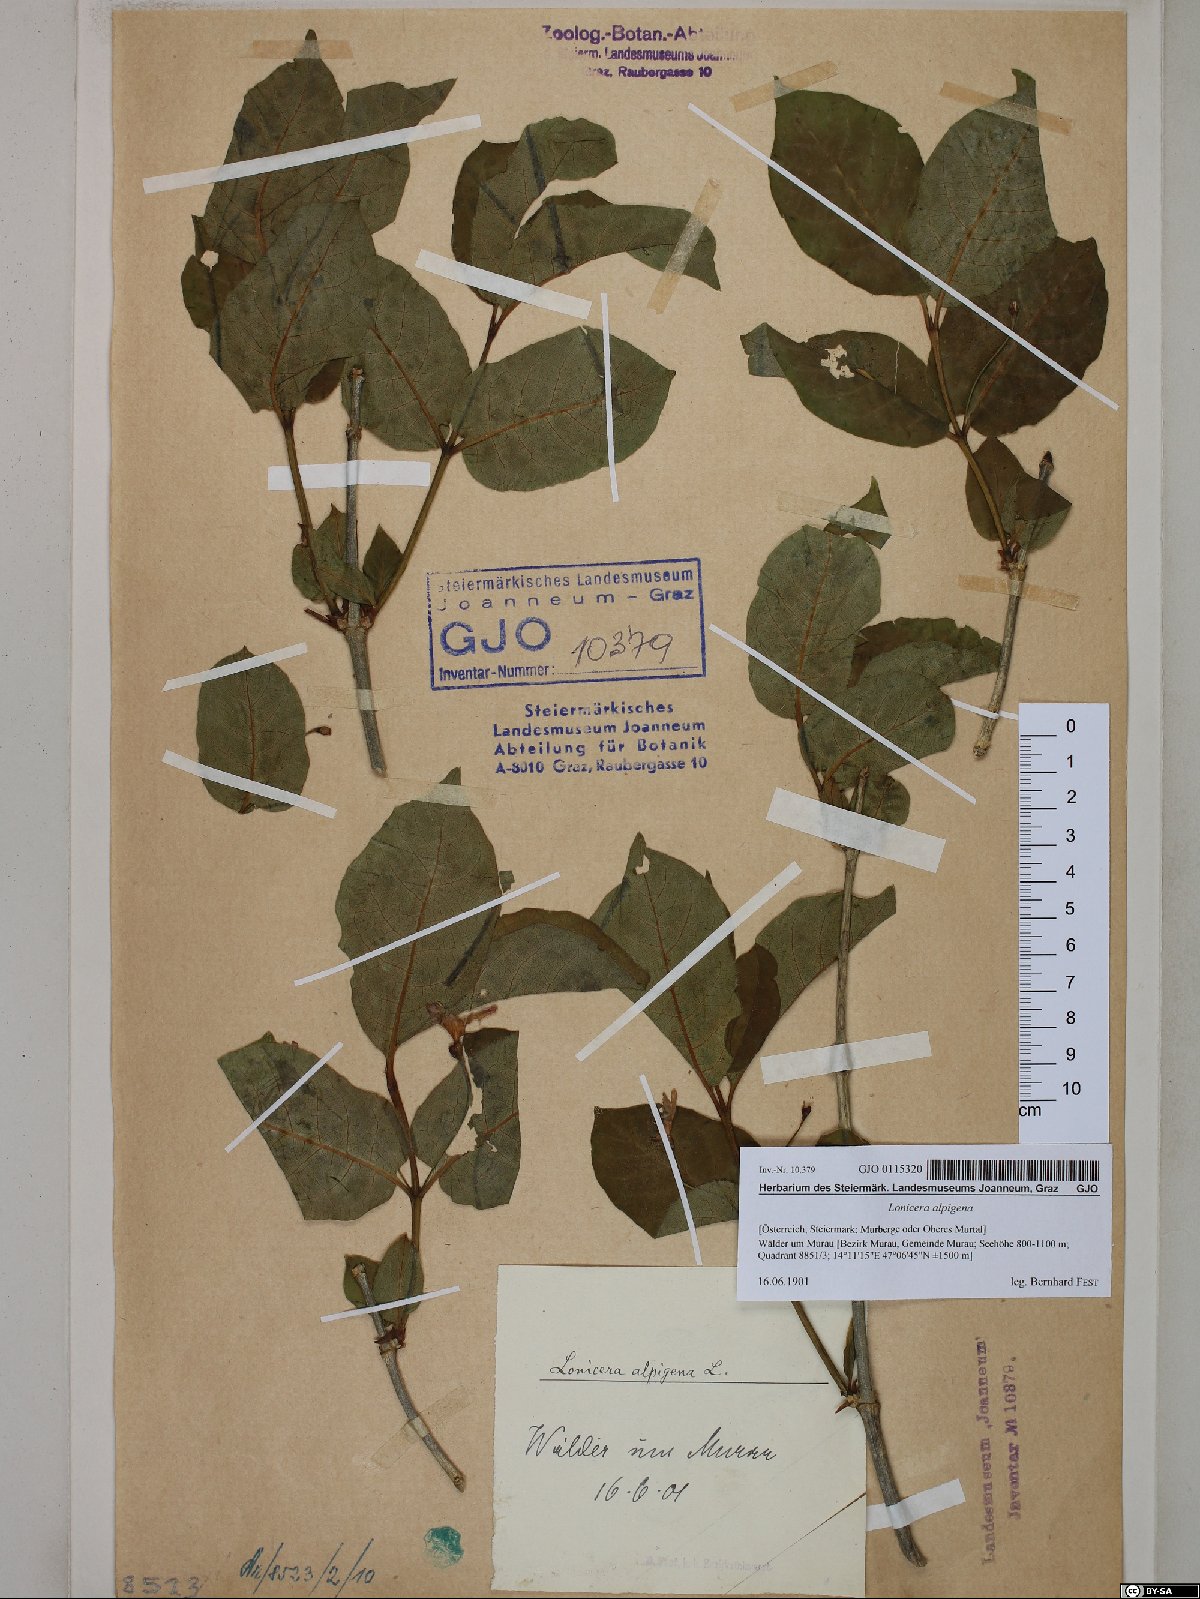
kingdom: Plantae
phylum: Tracheophyta
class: Magnoliopsida
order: Dipsacales
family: Caprifoliaceae
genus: Lonicera
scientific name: Lonicera alpigena
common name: Alpine honeysuckle
